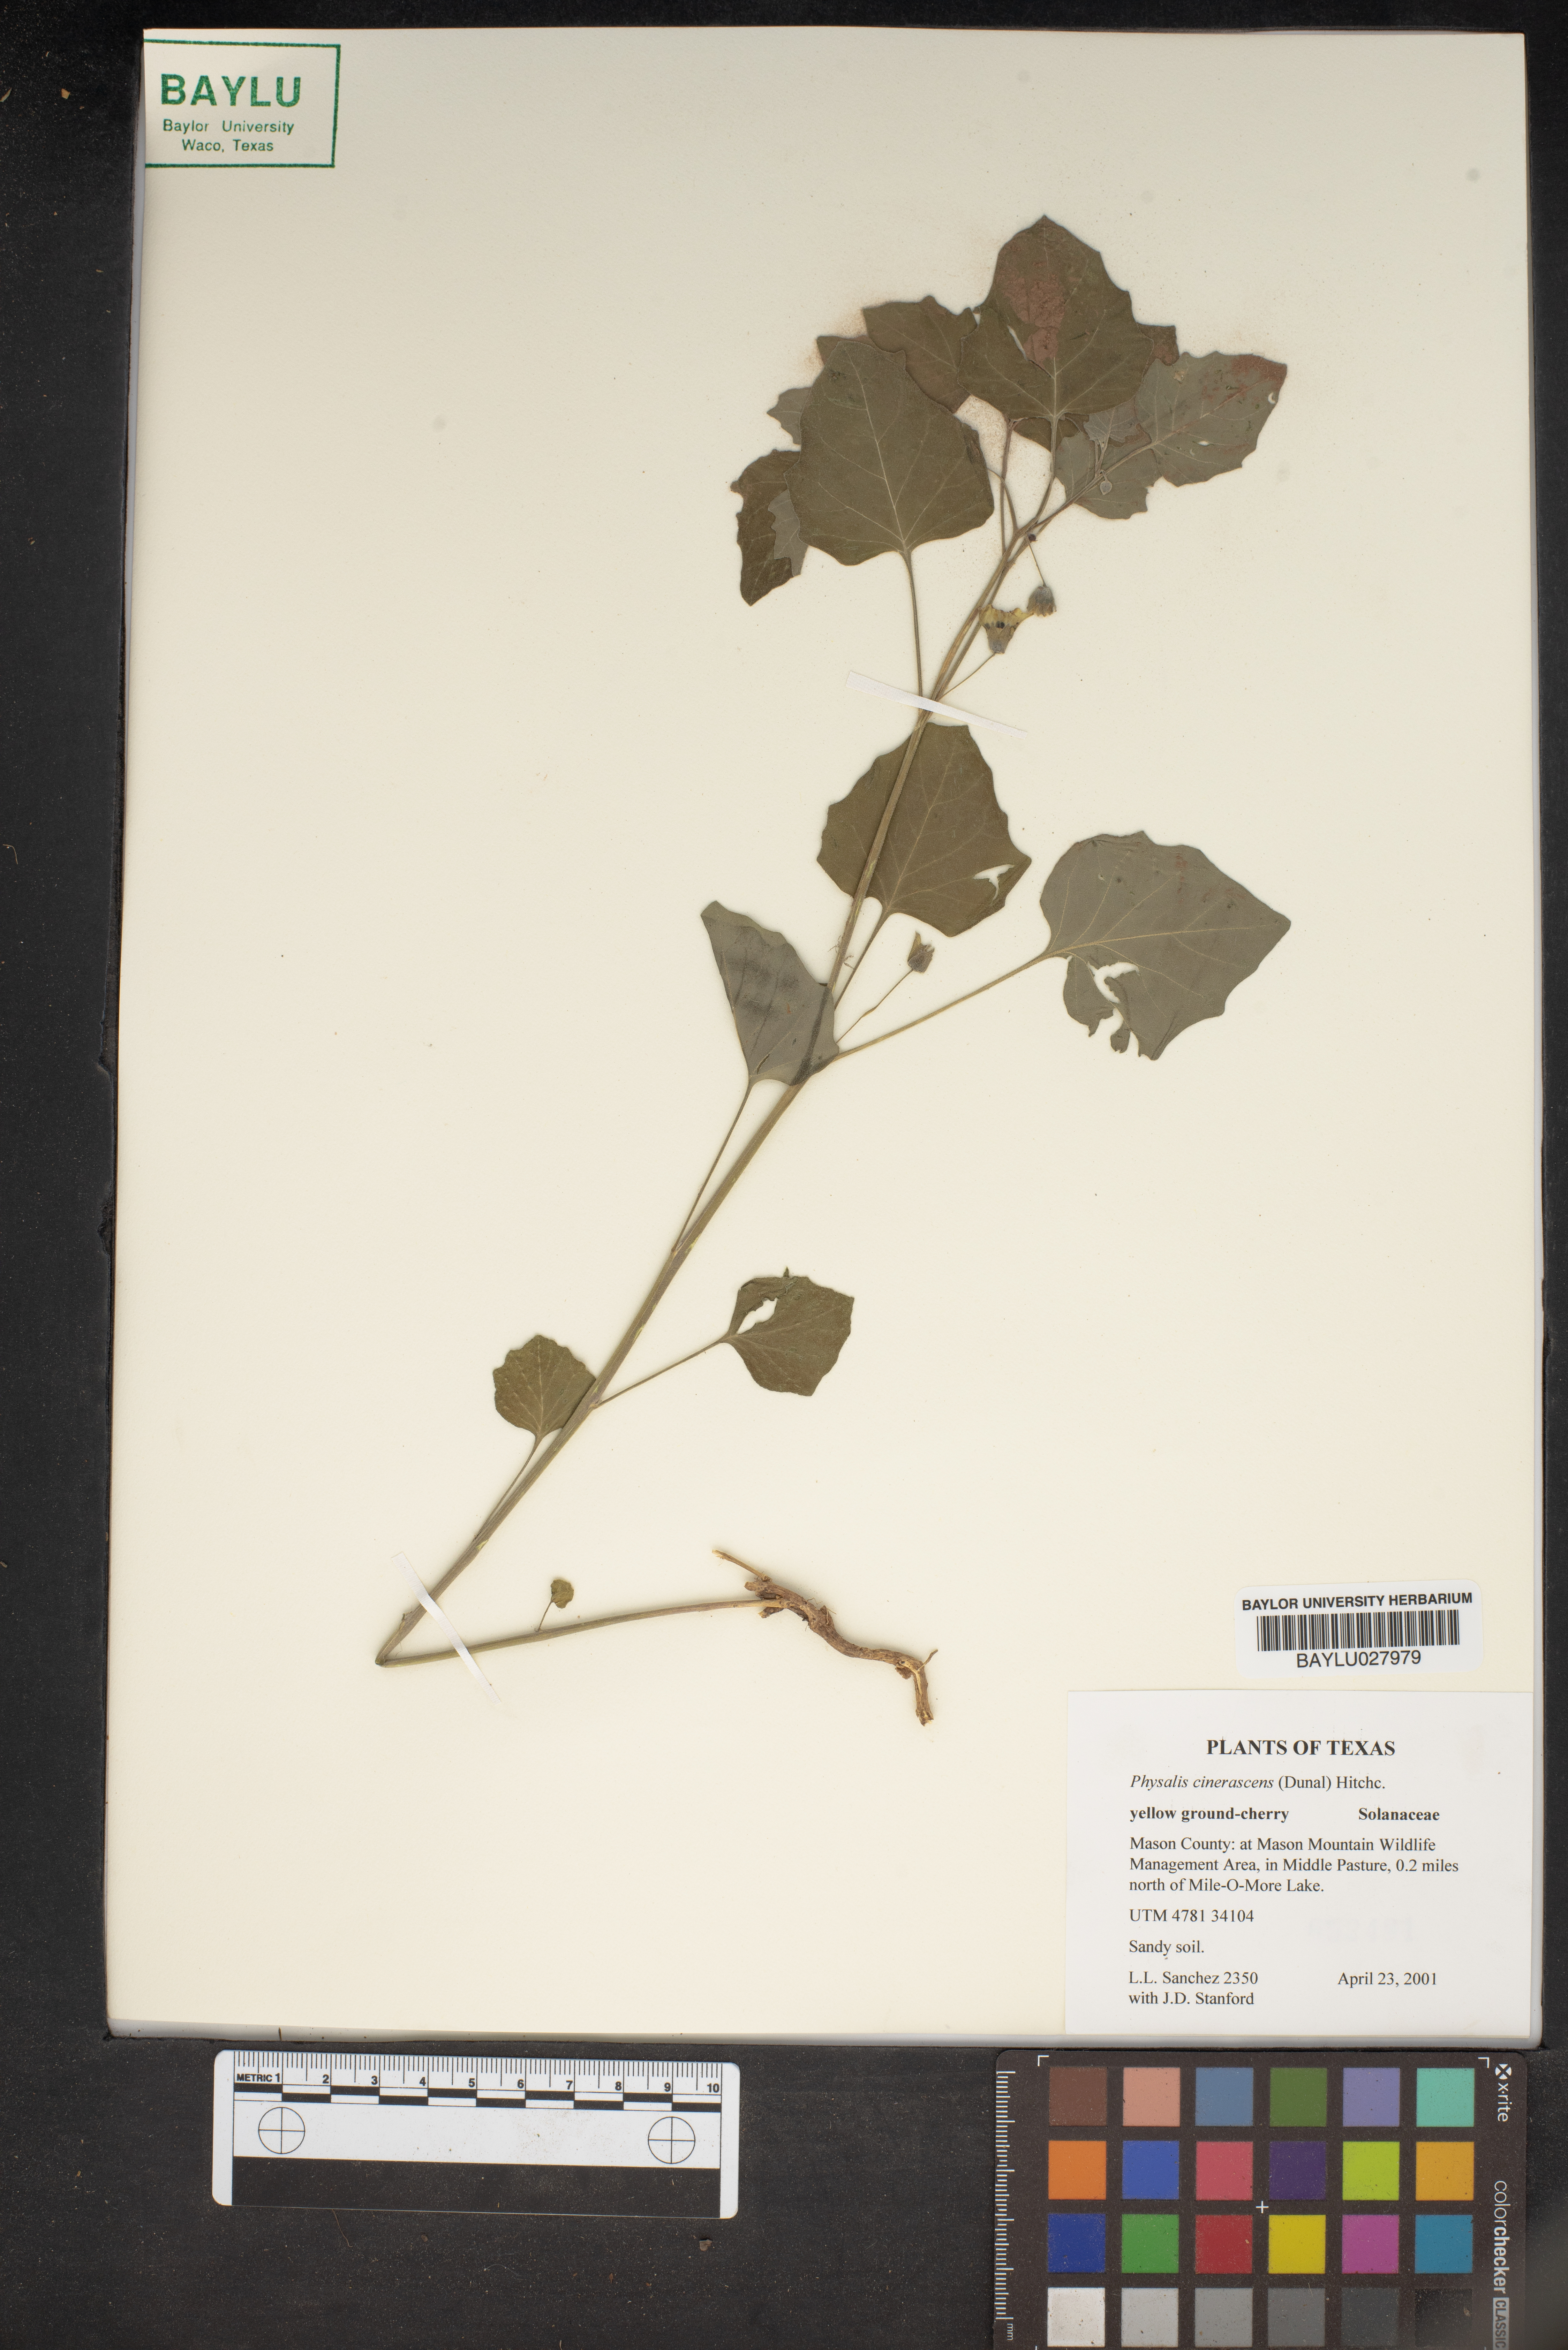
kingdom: Plantae
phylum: Tracheophyta
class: Magnoliopsida
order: Solanales
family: Solanaceae
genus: Physalis
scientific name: Physalis cinerascens
